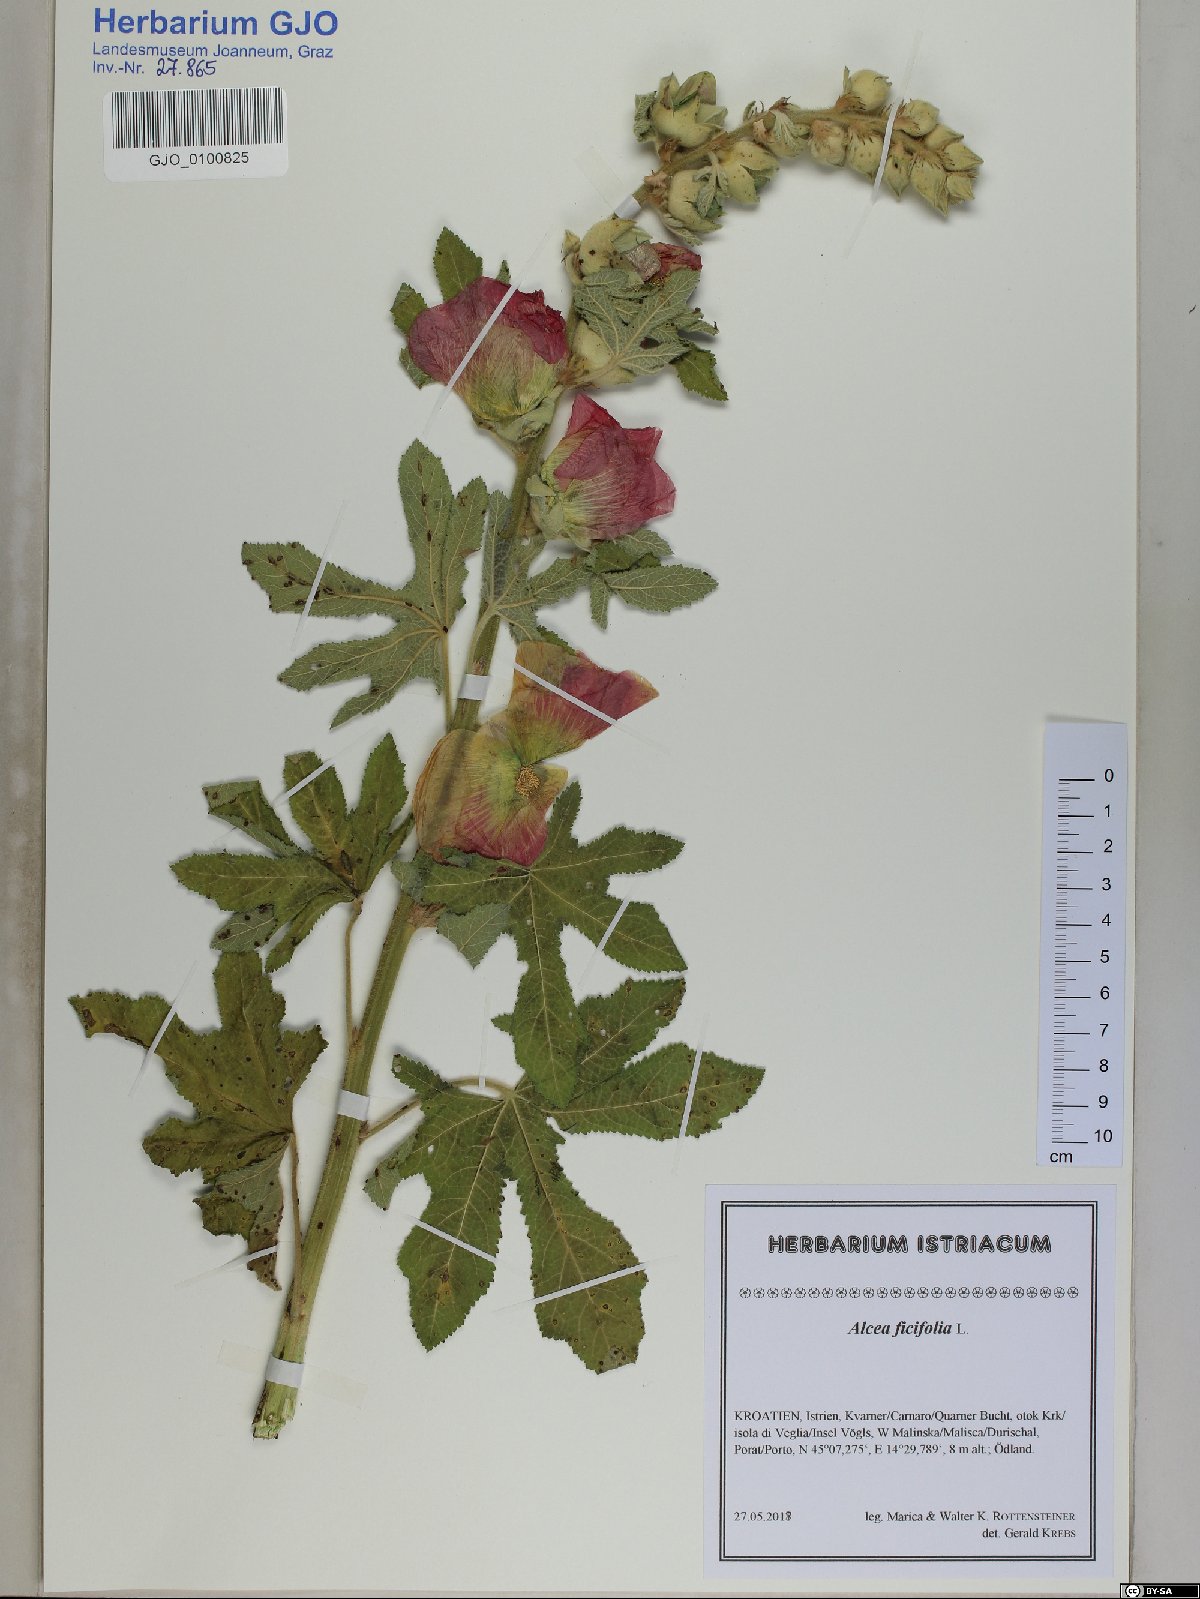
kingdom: Plantae
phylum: Tracheophyta
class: Magnoliopsida
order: Malvales
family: Malvaceae
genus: Alcea
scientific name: Alcea rosea
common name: Hollyhock
